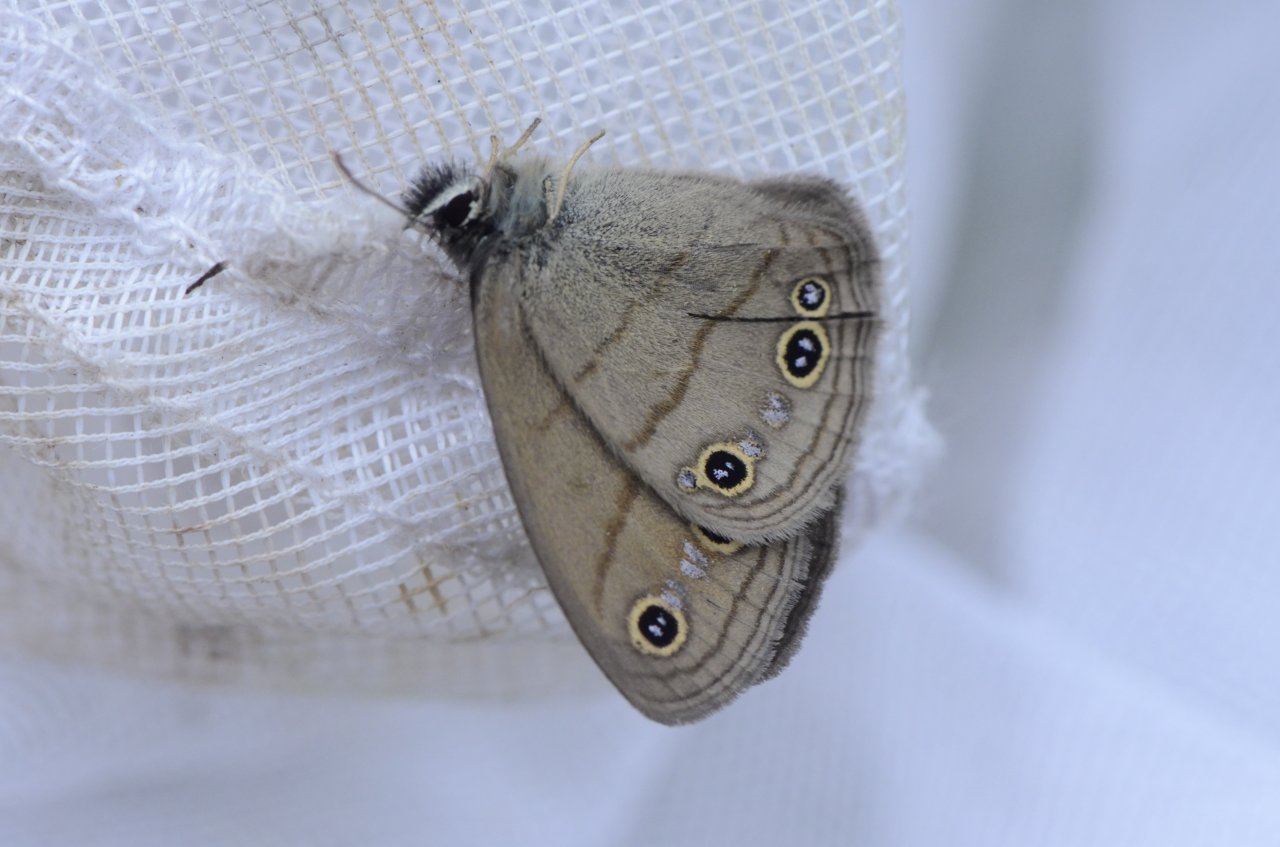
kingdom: Animalia
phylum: Arthropoda
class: Insecta
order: Lepidoptera
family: Nymphalidae
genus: Euptychia
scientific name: Euptychia cymela
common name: Little Wood Satyr
